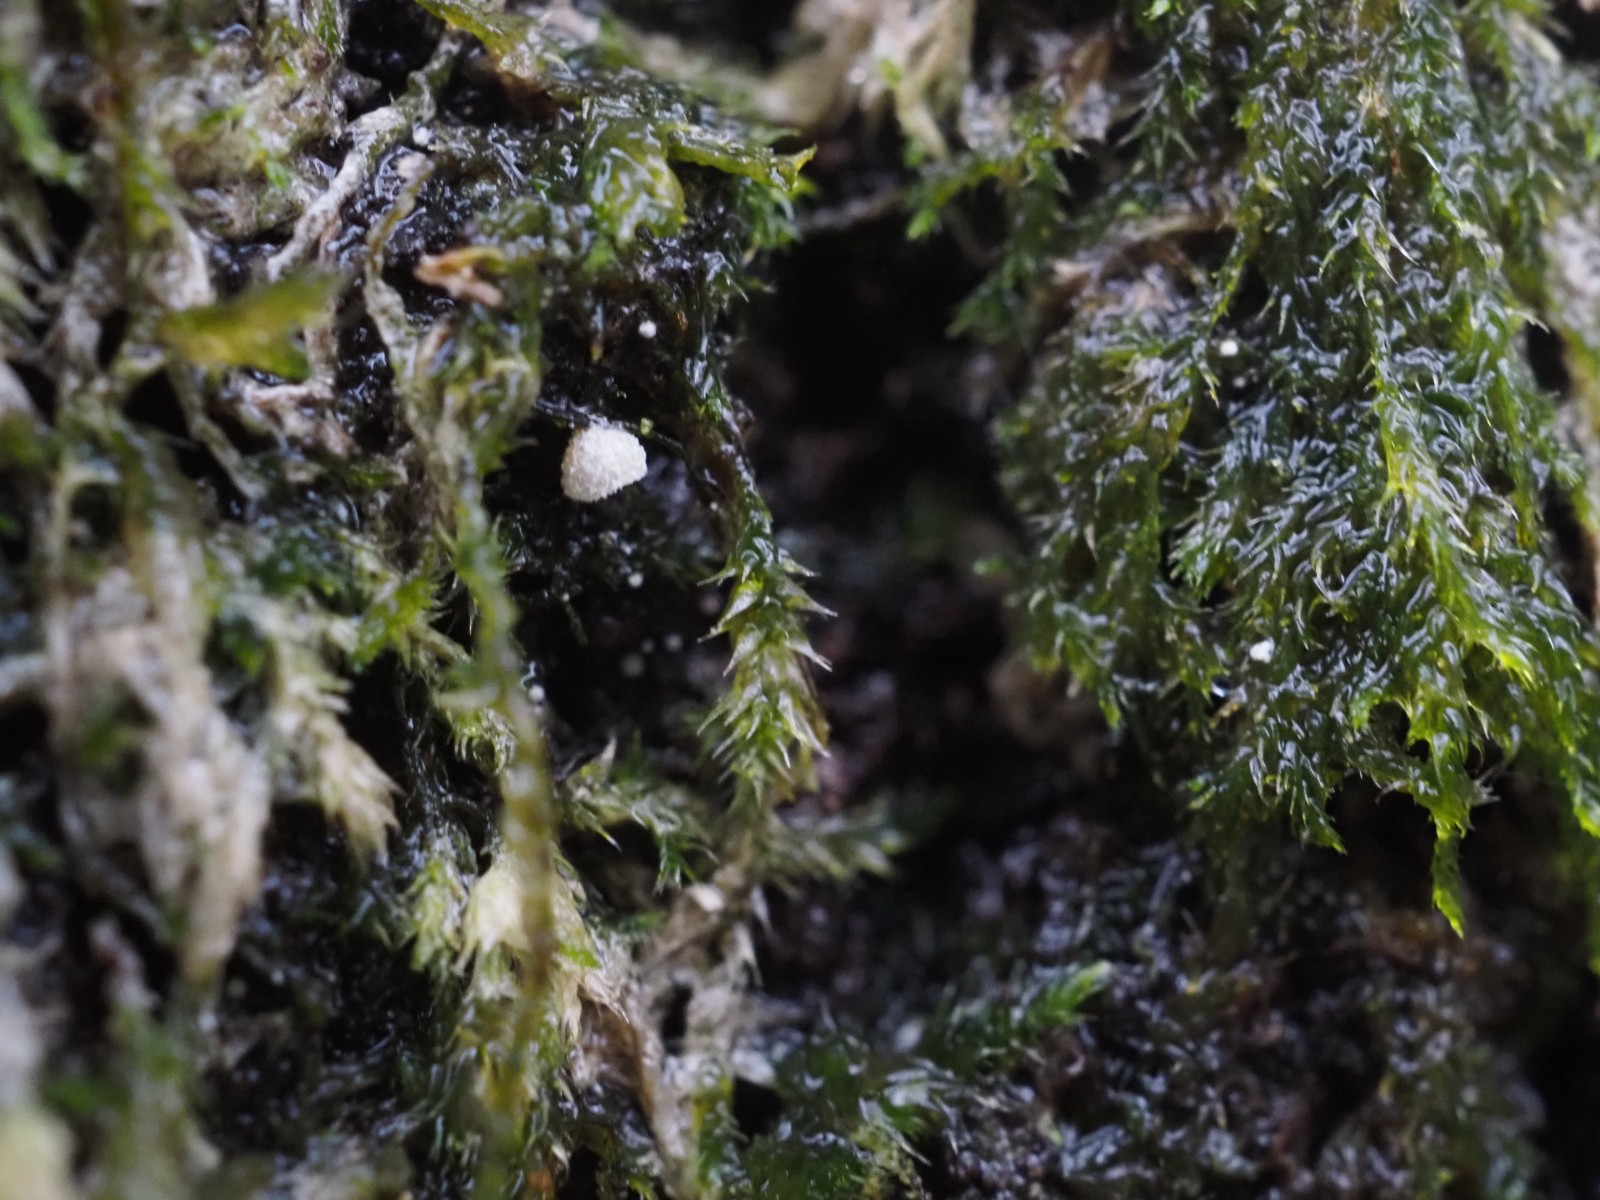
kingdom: Fungi
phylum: Basidiomycota
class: Agaricomycetes
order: Agaricales
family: Chromocyphellaceae
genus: Chromocyphella
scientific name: Chromocyphella muscicola
